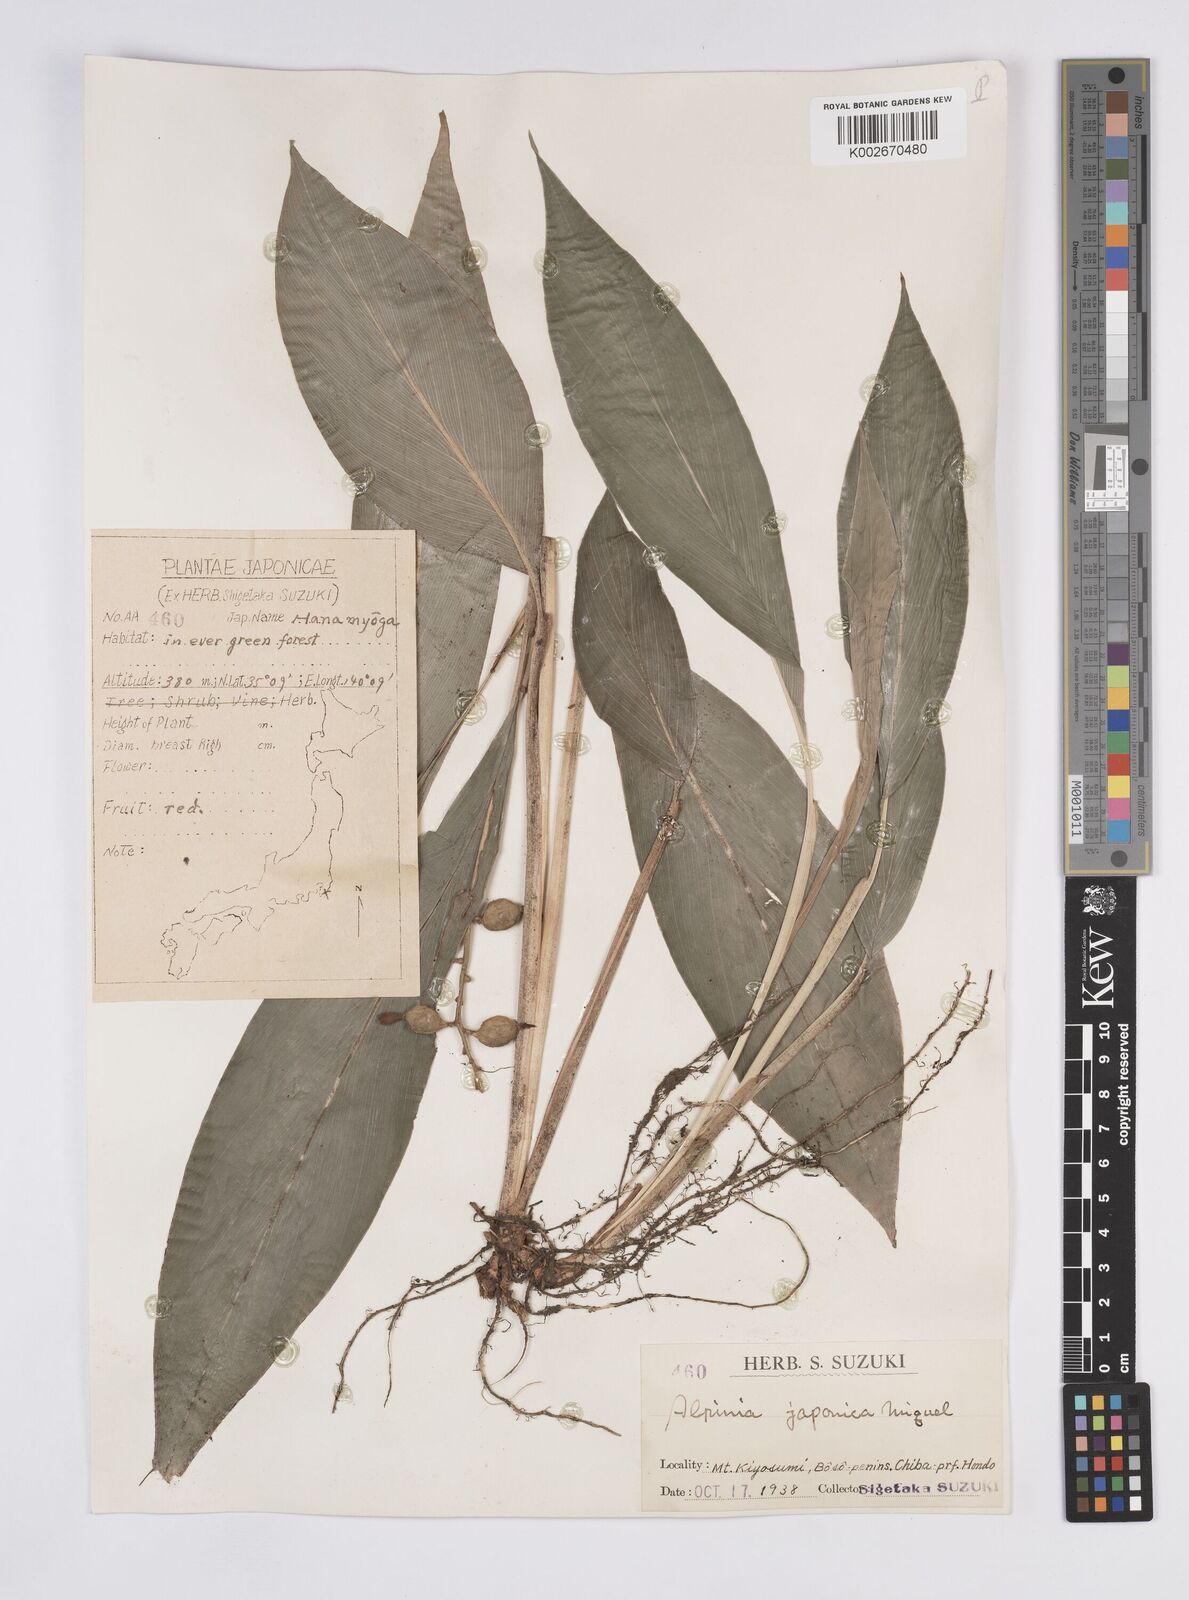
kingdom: Plantae
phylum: Tracheophyta
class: Liliopsida
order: Zingiberales
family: Zingiberaceae
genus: Alpinia
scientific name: Alpinia japonica
